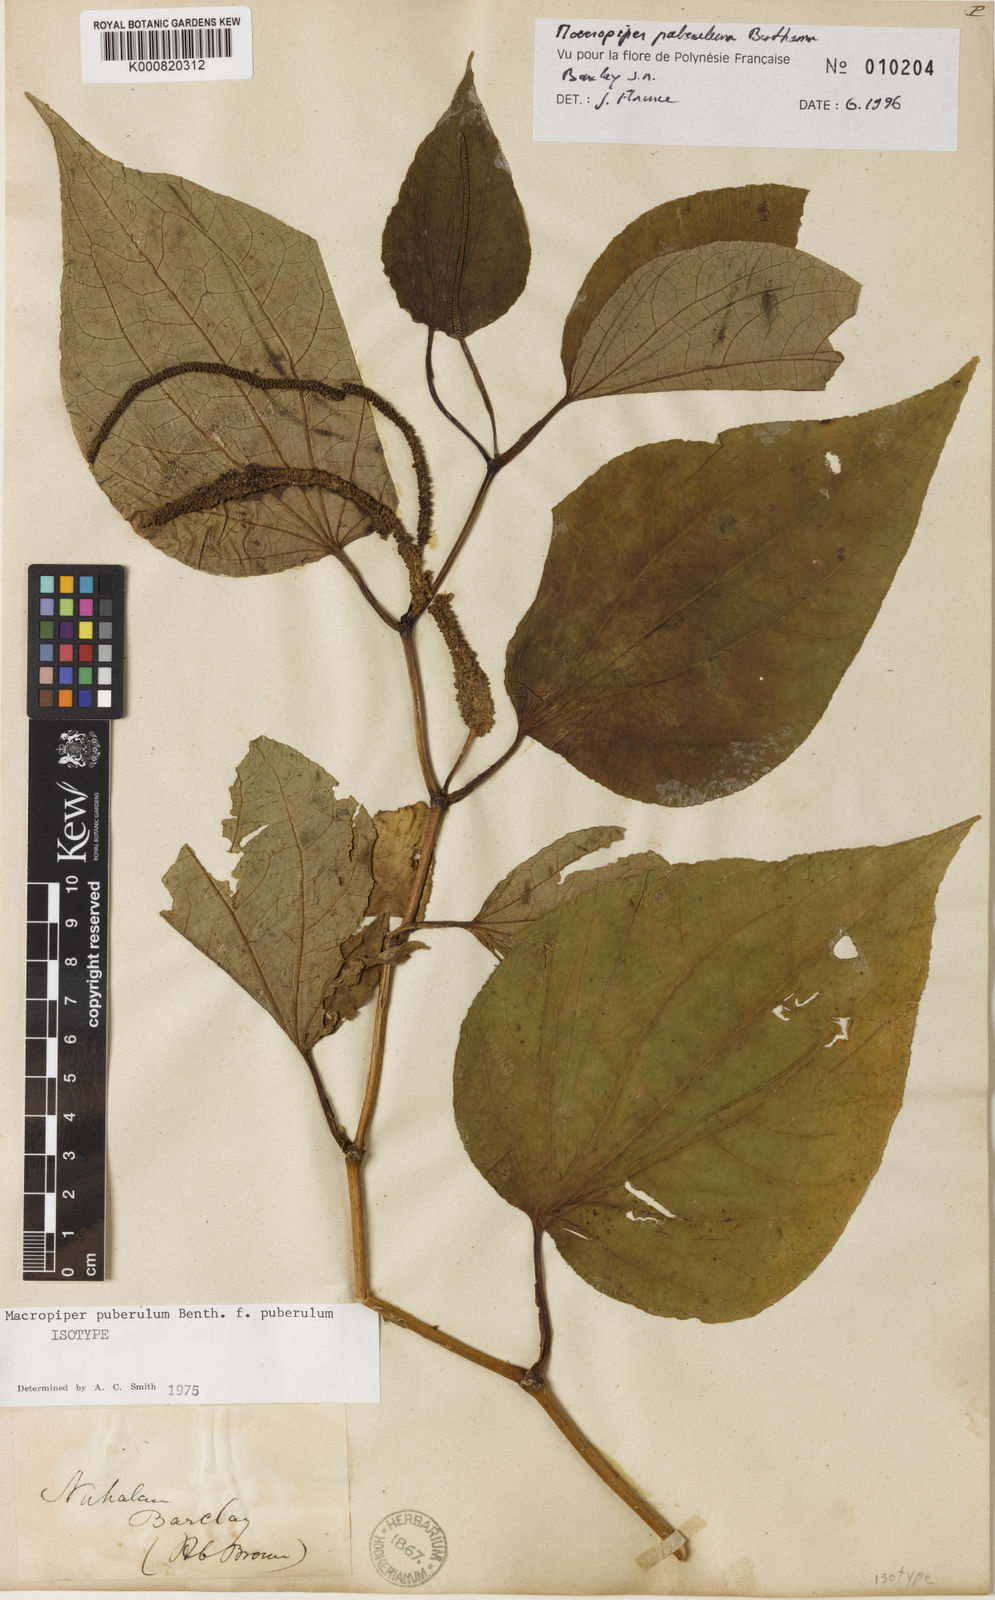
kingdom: Plantae
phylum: Tracheophyta
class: Magnoliopsida
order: Piperales
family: Piperaceae
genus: Macropiper
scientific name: Macropiper puberulum
